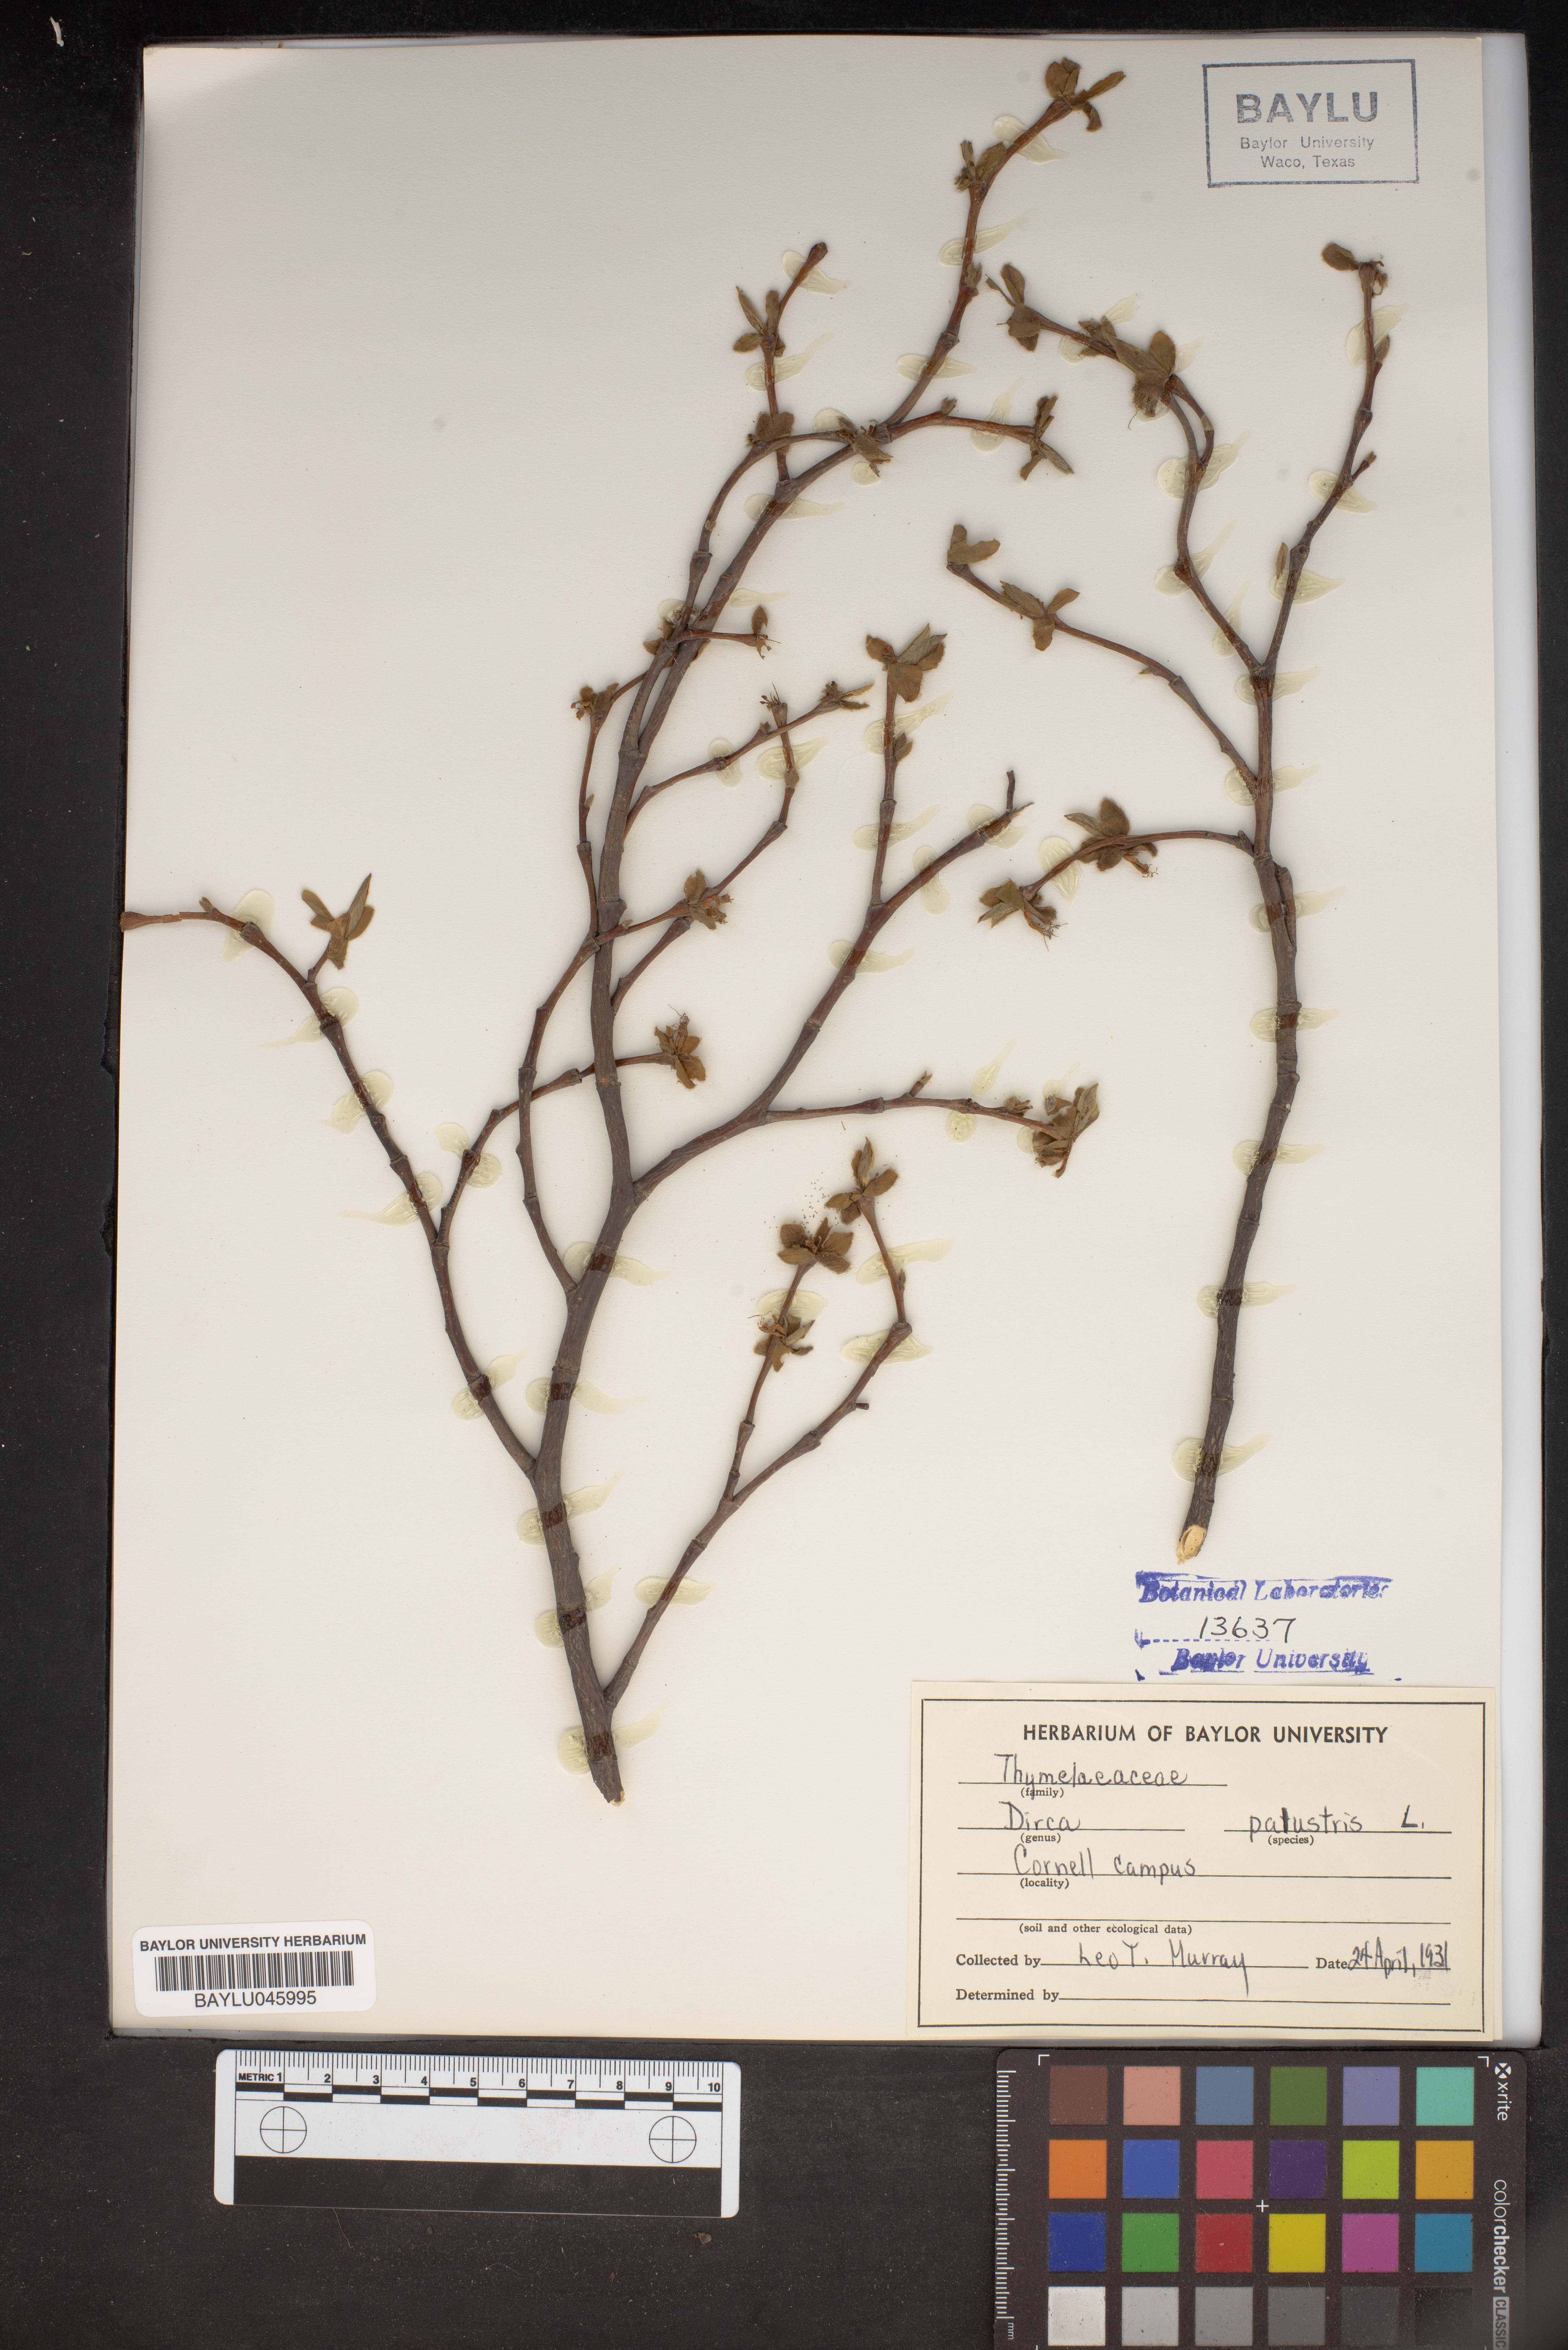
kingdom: Plantae
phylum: Tracheophyta
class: Magnoliopsida
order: Malvales
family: Thymelaeaceae
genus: Dirca
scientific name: Dirca palustris
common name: Leatherwood
